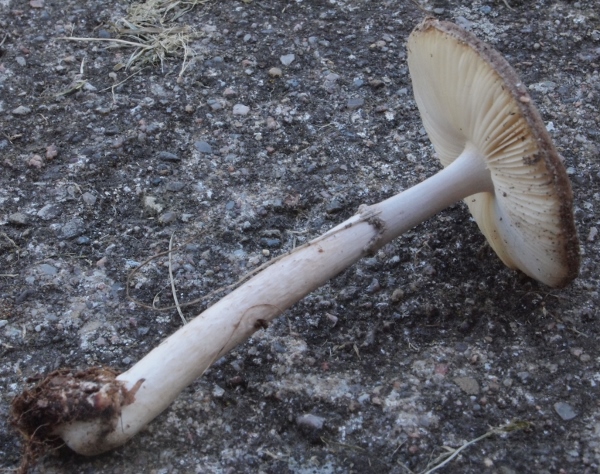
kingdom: Fungi
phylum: Basidiomycota
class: Agaricomycetes
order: Agaricales
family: Amanitaceae
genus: Amanita
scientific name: Amanita porphyria
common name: porfyr-fluesvamp
